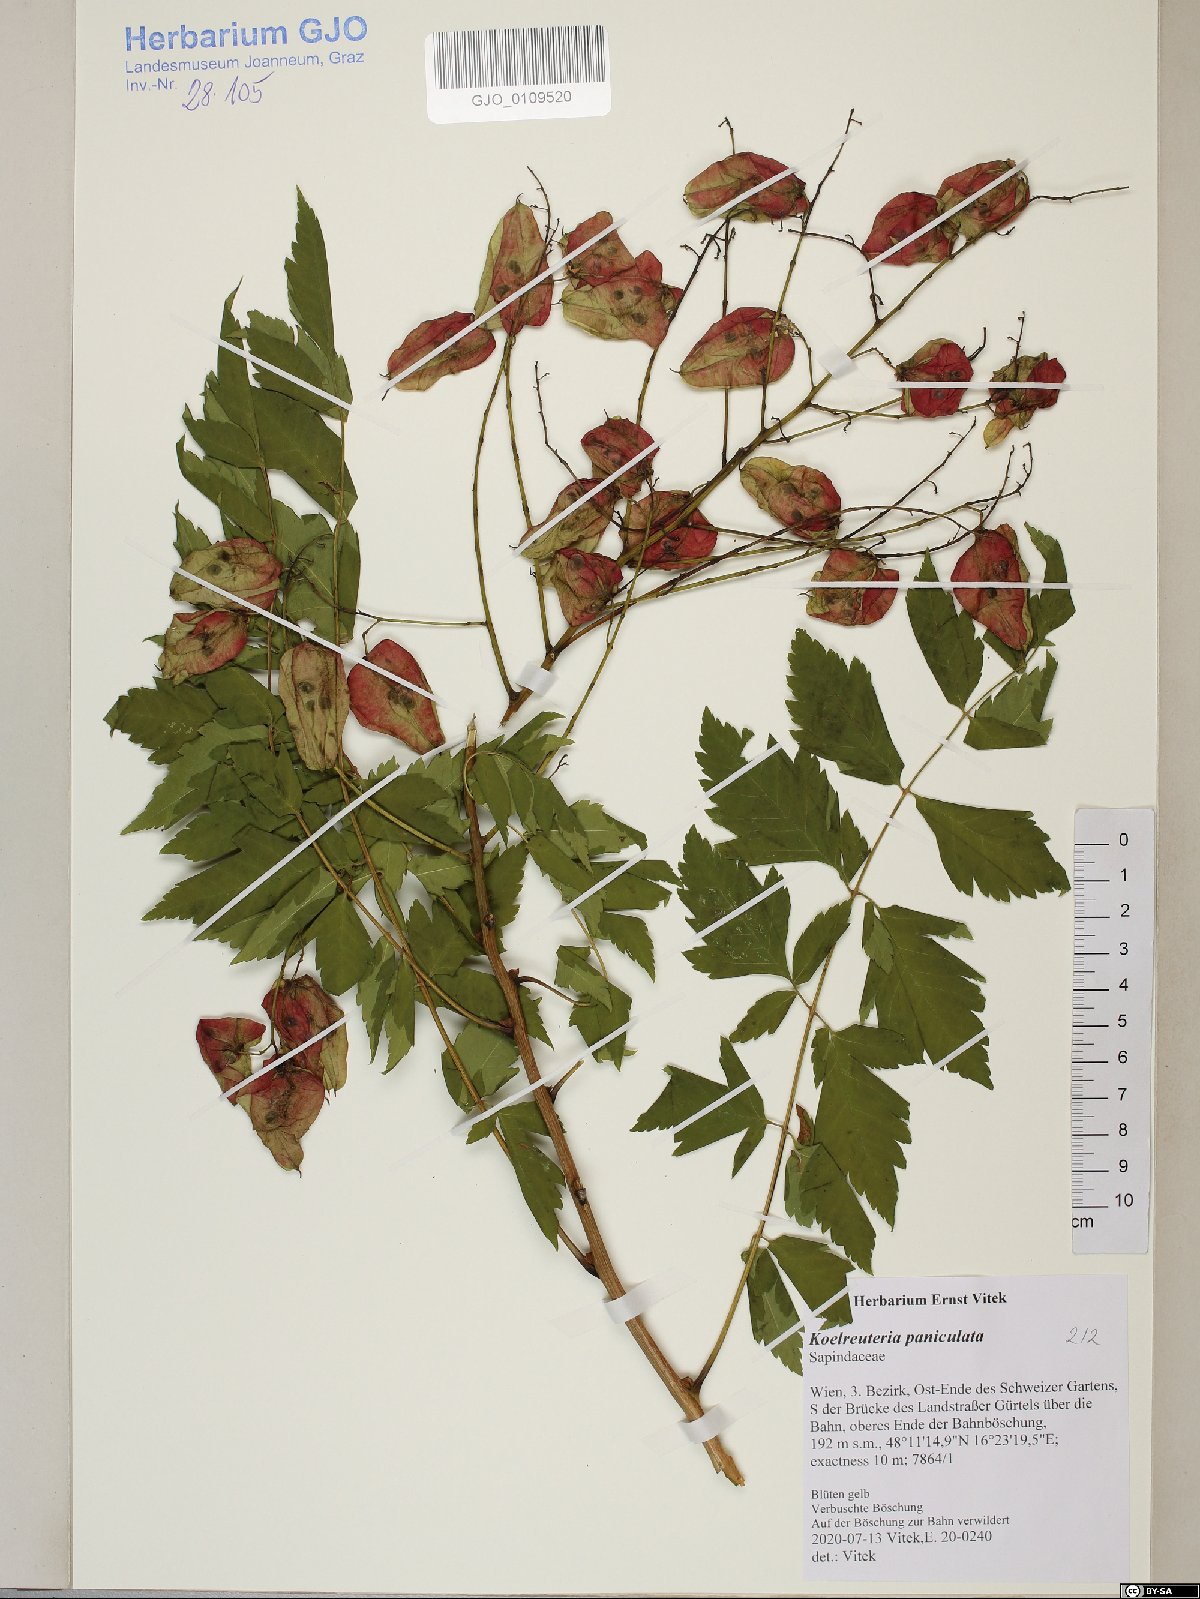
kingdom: Plantae
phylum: Tracheophyta
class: Magnoliopsida
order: Sapindales
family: Sapindaceae
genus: Koelreuteria
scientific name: Koelreuteria paniculata
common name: Pride-of-india
